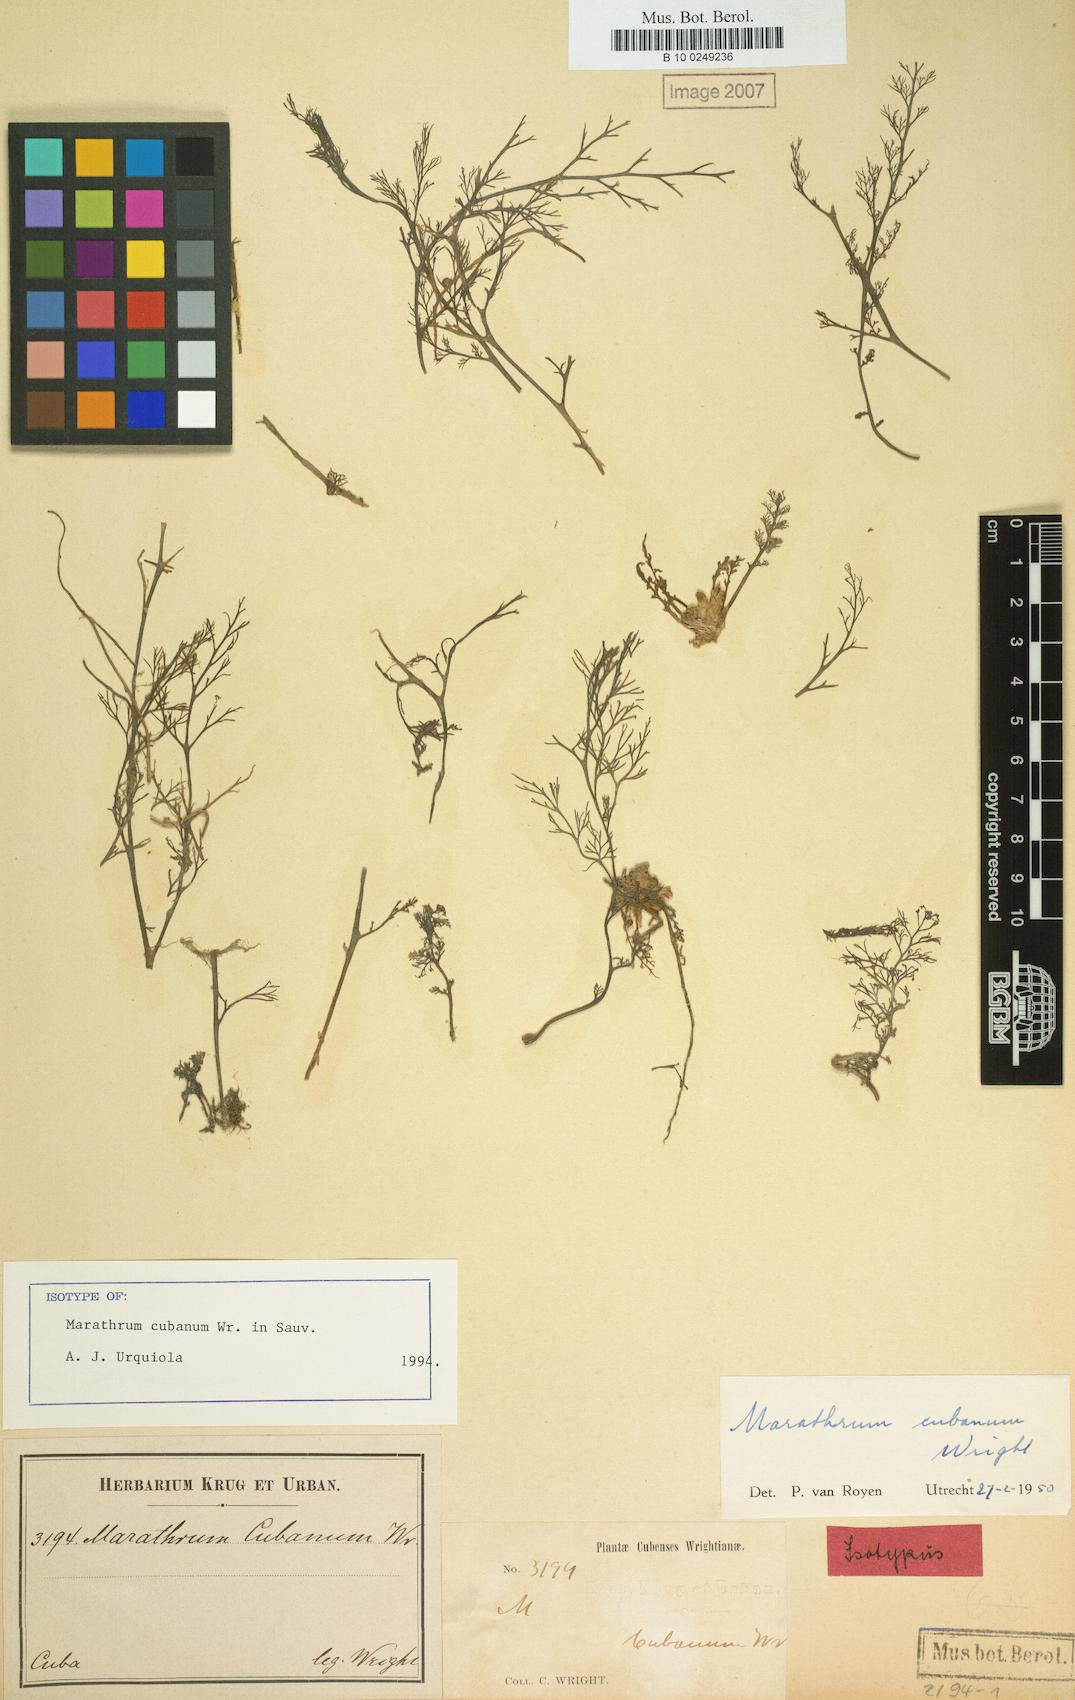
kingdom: Plantae
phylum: Tracheophyta
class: Magnoliopsida
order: Malpighiales
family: Podostemaceae
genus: Marathrum
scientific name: Marathrum cubanum
